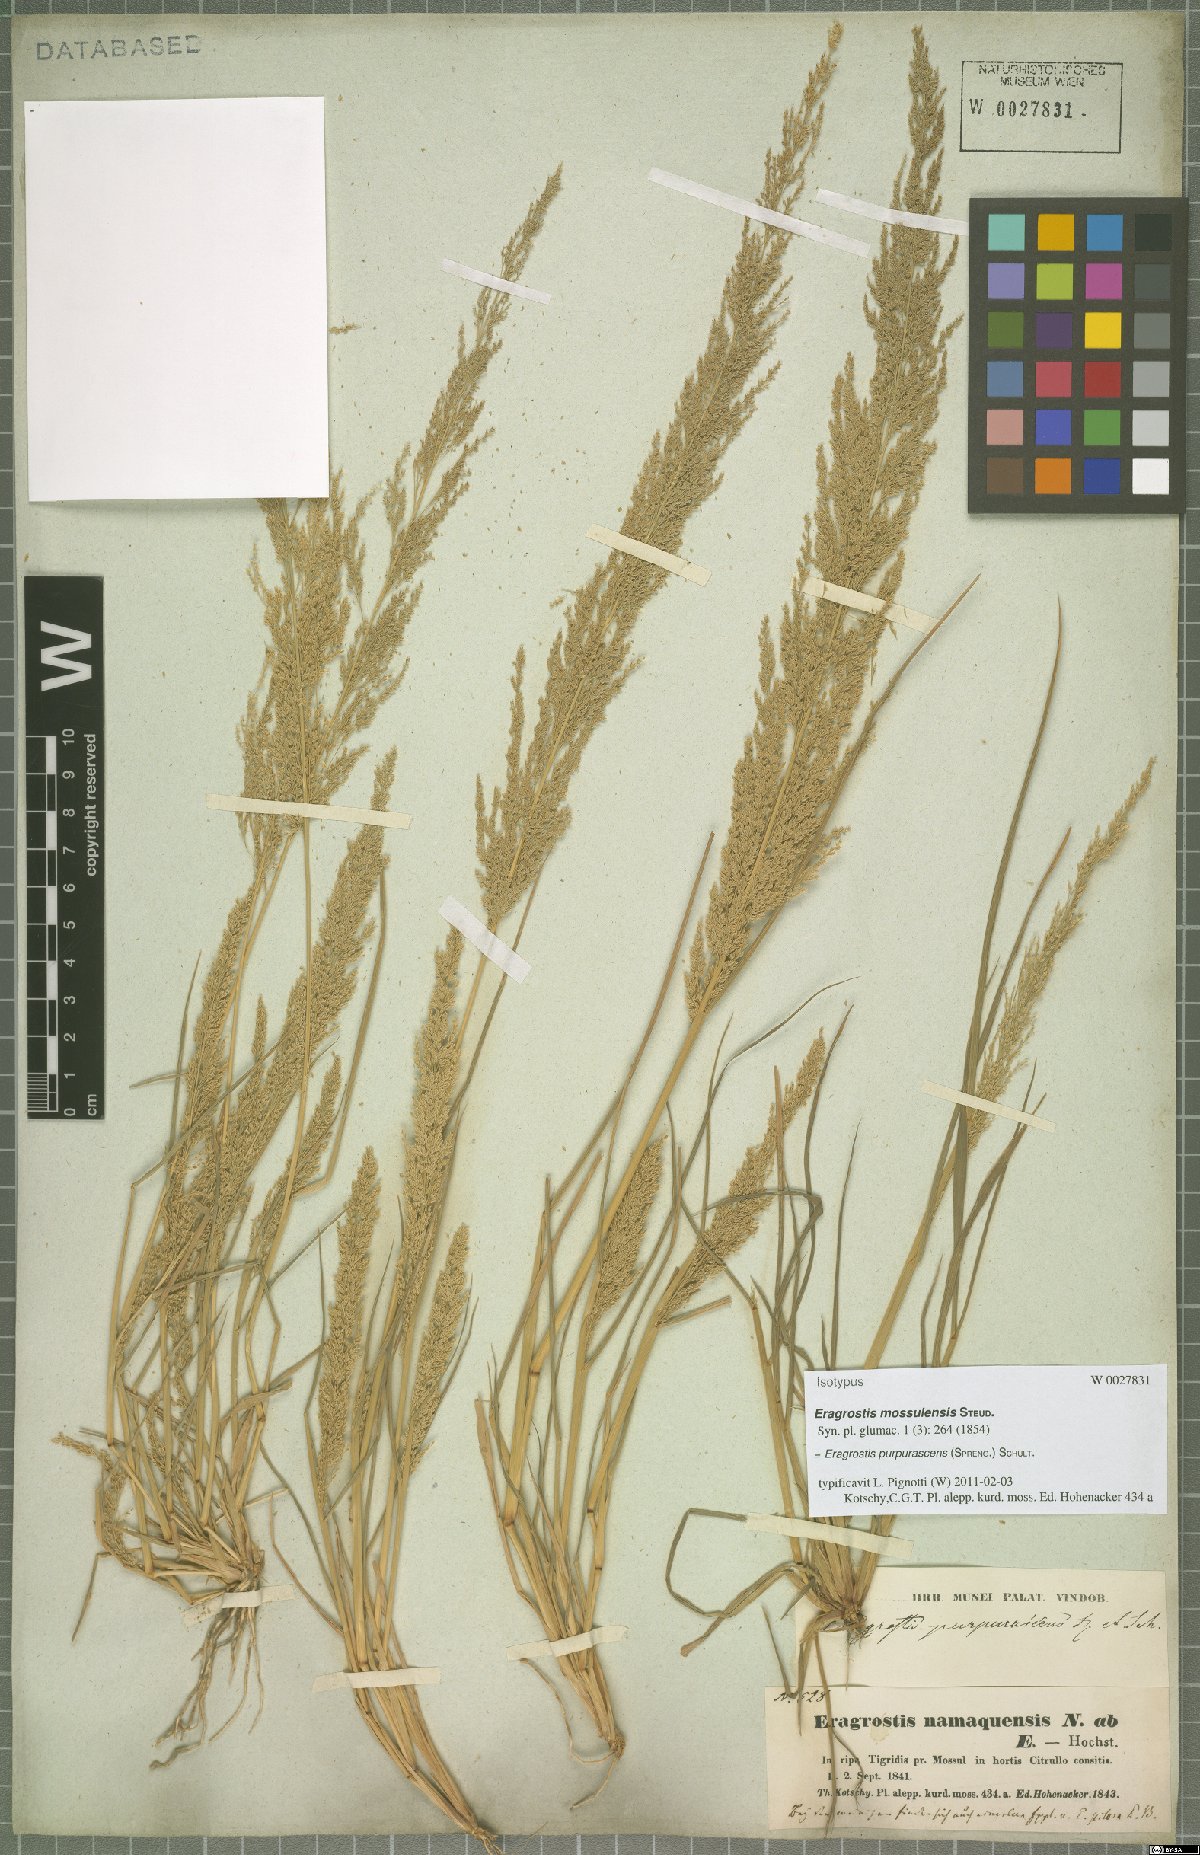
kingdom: Plantae
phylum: Tracheophyta
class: Liliopsida
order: Poales
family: Poaceae
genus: Eragrostis
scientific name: Eragrostis purpurascens
